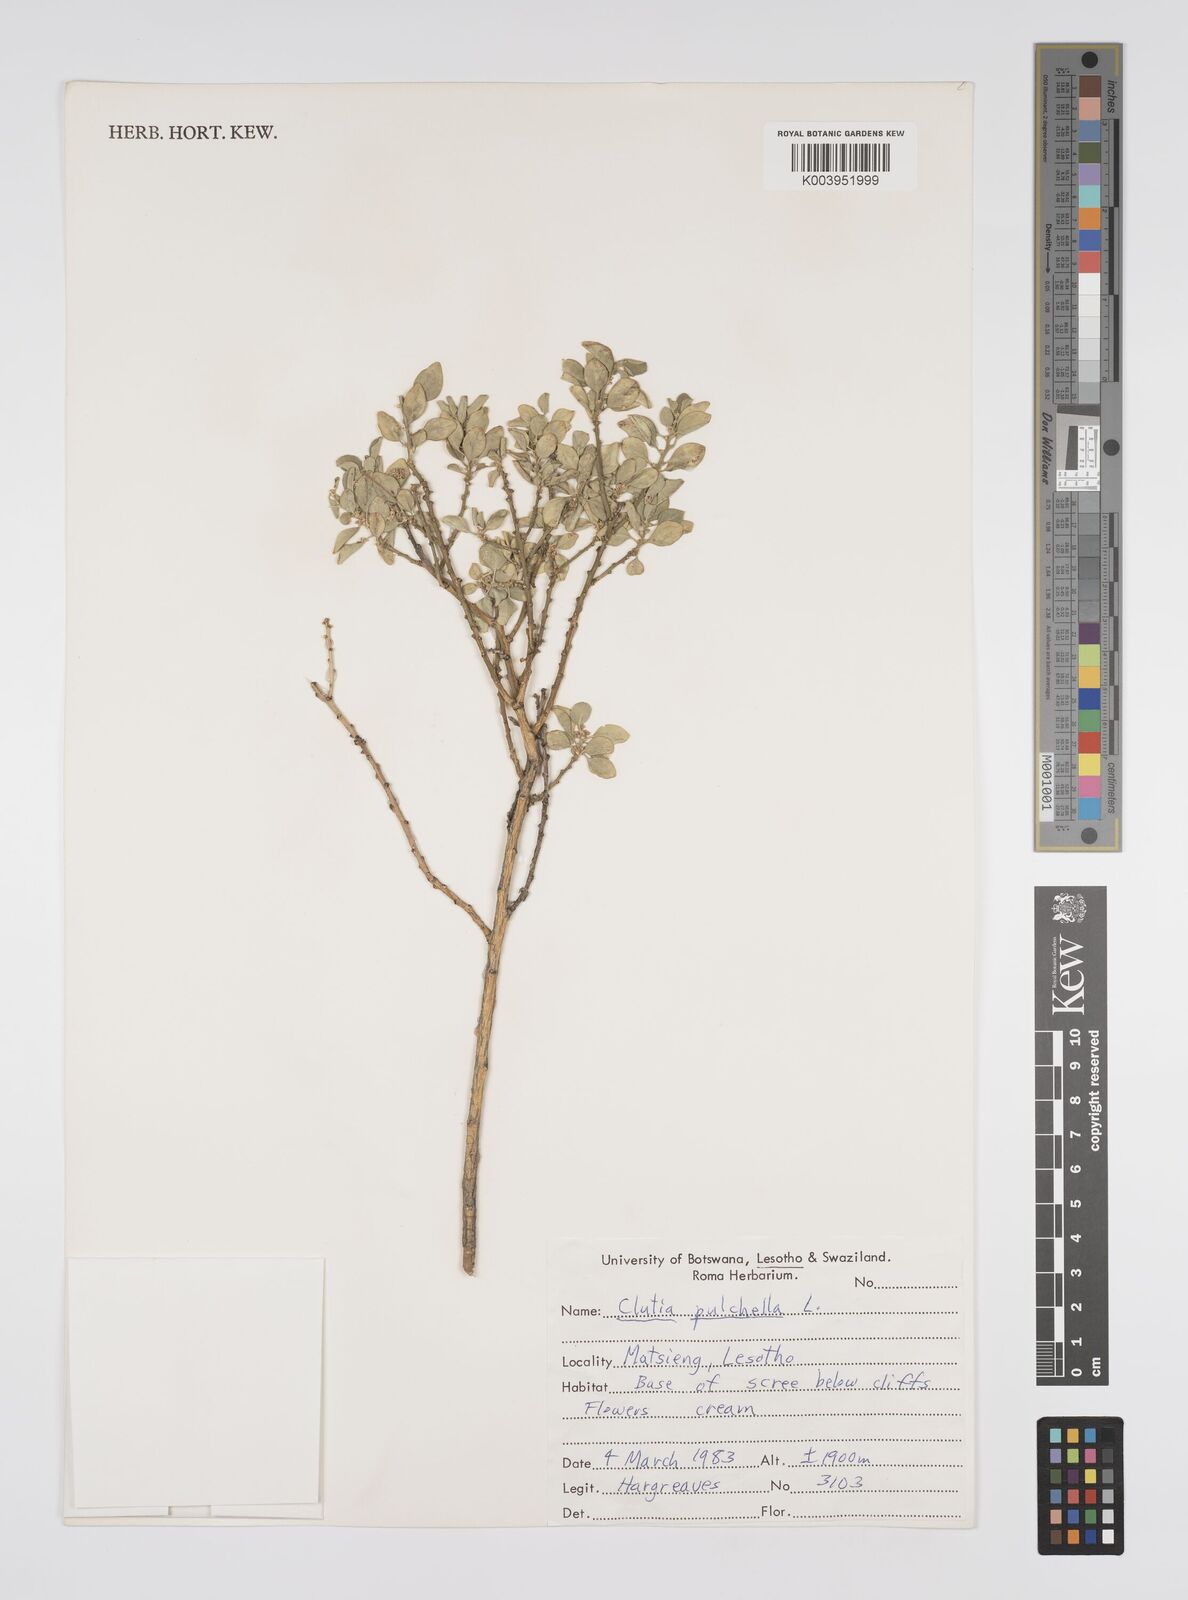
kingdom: Plantae
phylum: Tracheophyta
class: Magnoliopsida
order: Malpighiales
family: Peraceae
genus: Clutia
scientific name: Clutia pulchella
